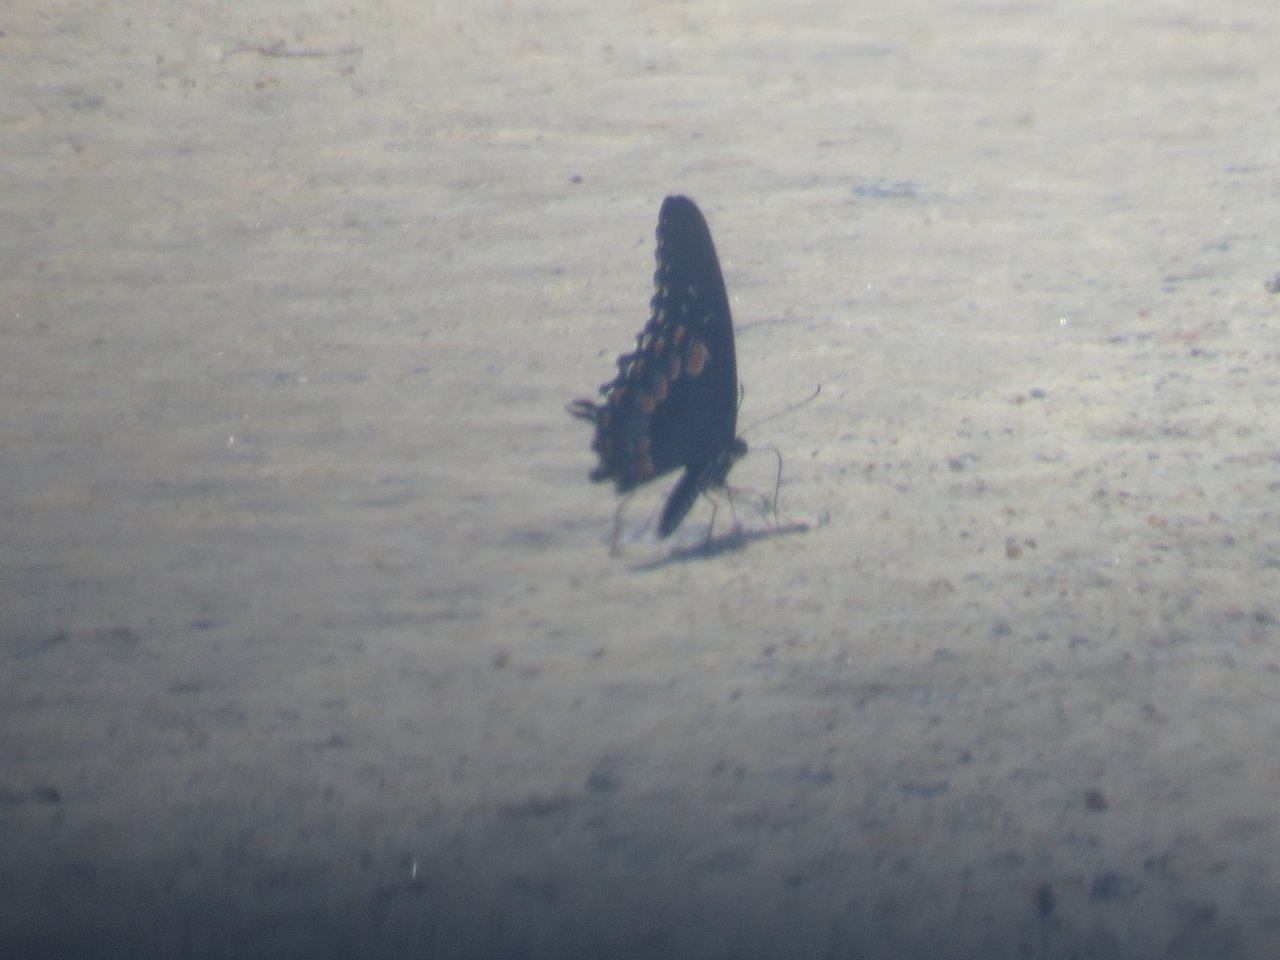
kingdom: Animalia
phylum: Arthropoda
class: Insecta
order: Lepidoptera
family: Papilionidae
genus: Pterourus
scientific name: Pterourus troilus
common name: Spicebush Swallowtail
